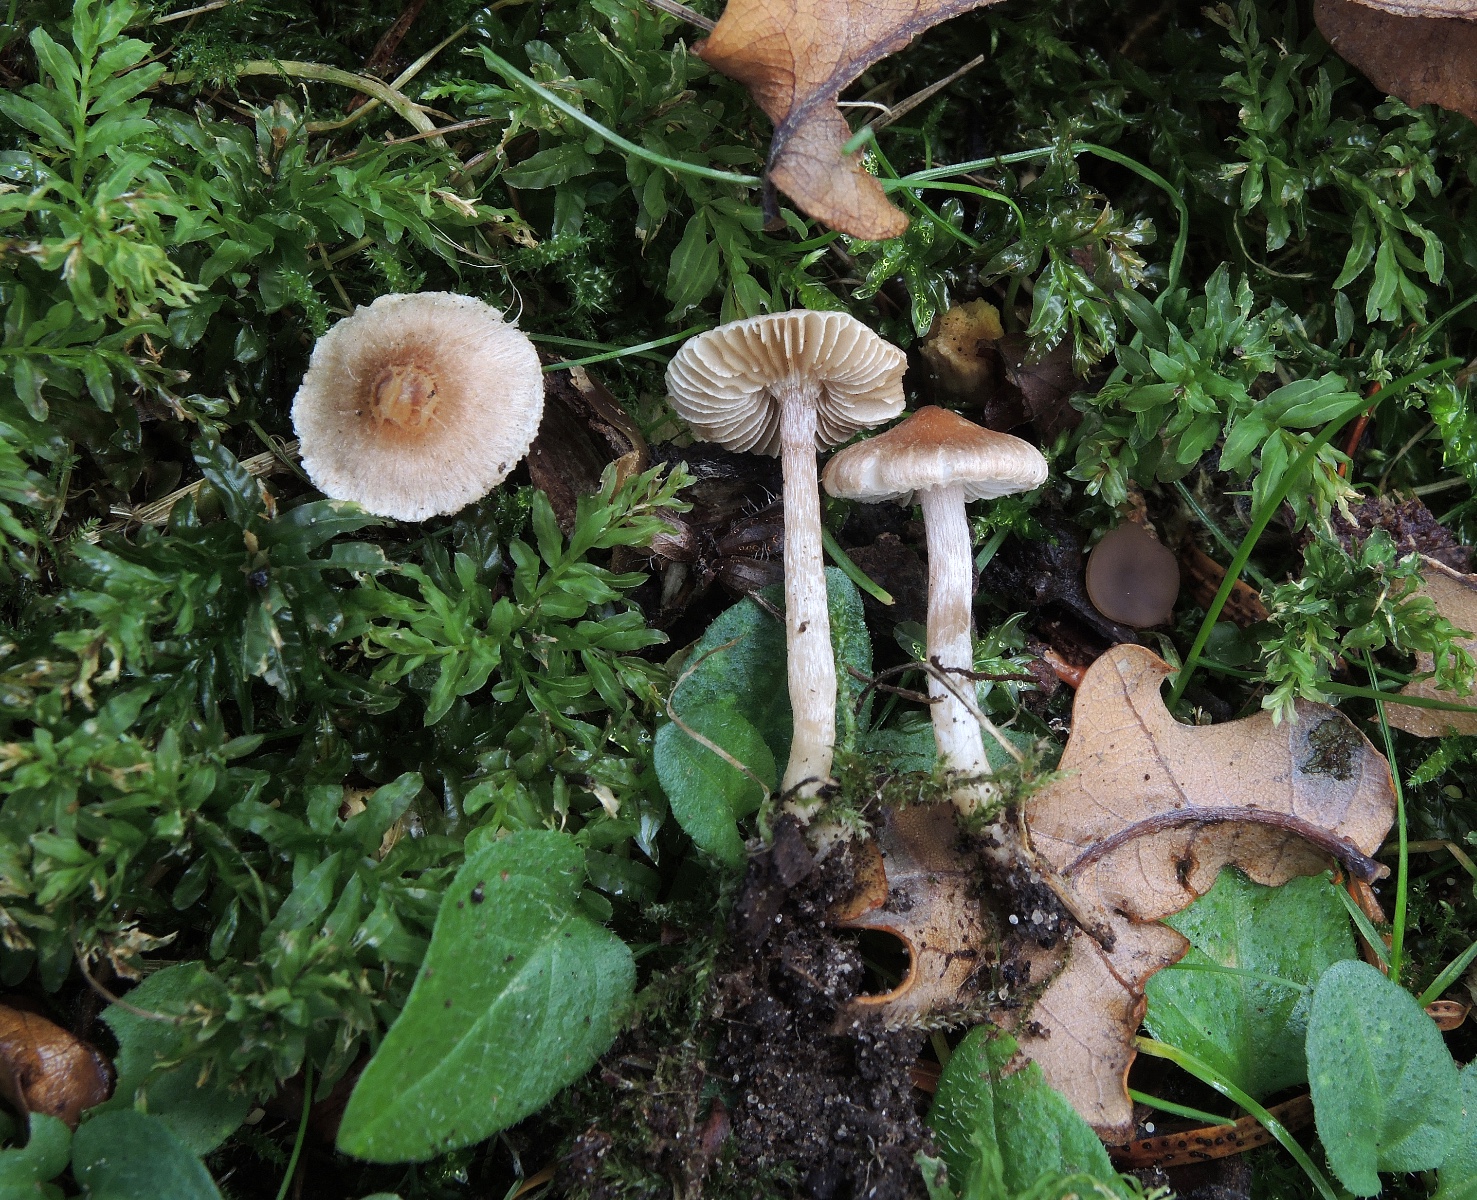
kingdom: Fungi
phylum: Basidiomycota
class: Agaricomycetes
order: Agaricales
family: Inocybaceae
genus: Inocybe
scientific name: Inocybe pseudorubens
